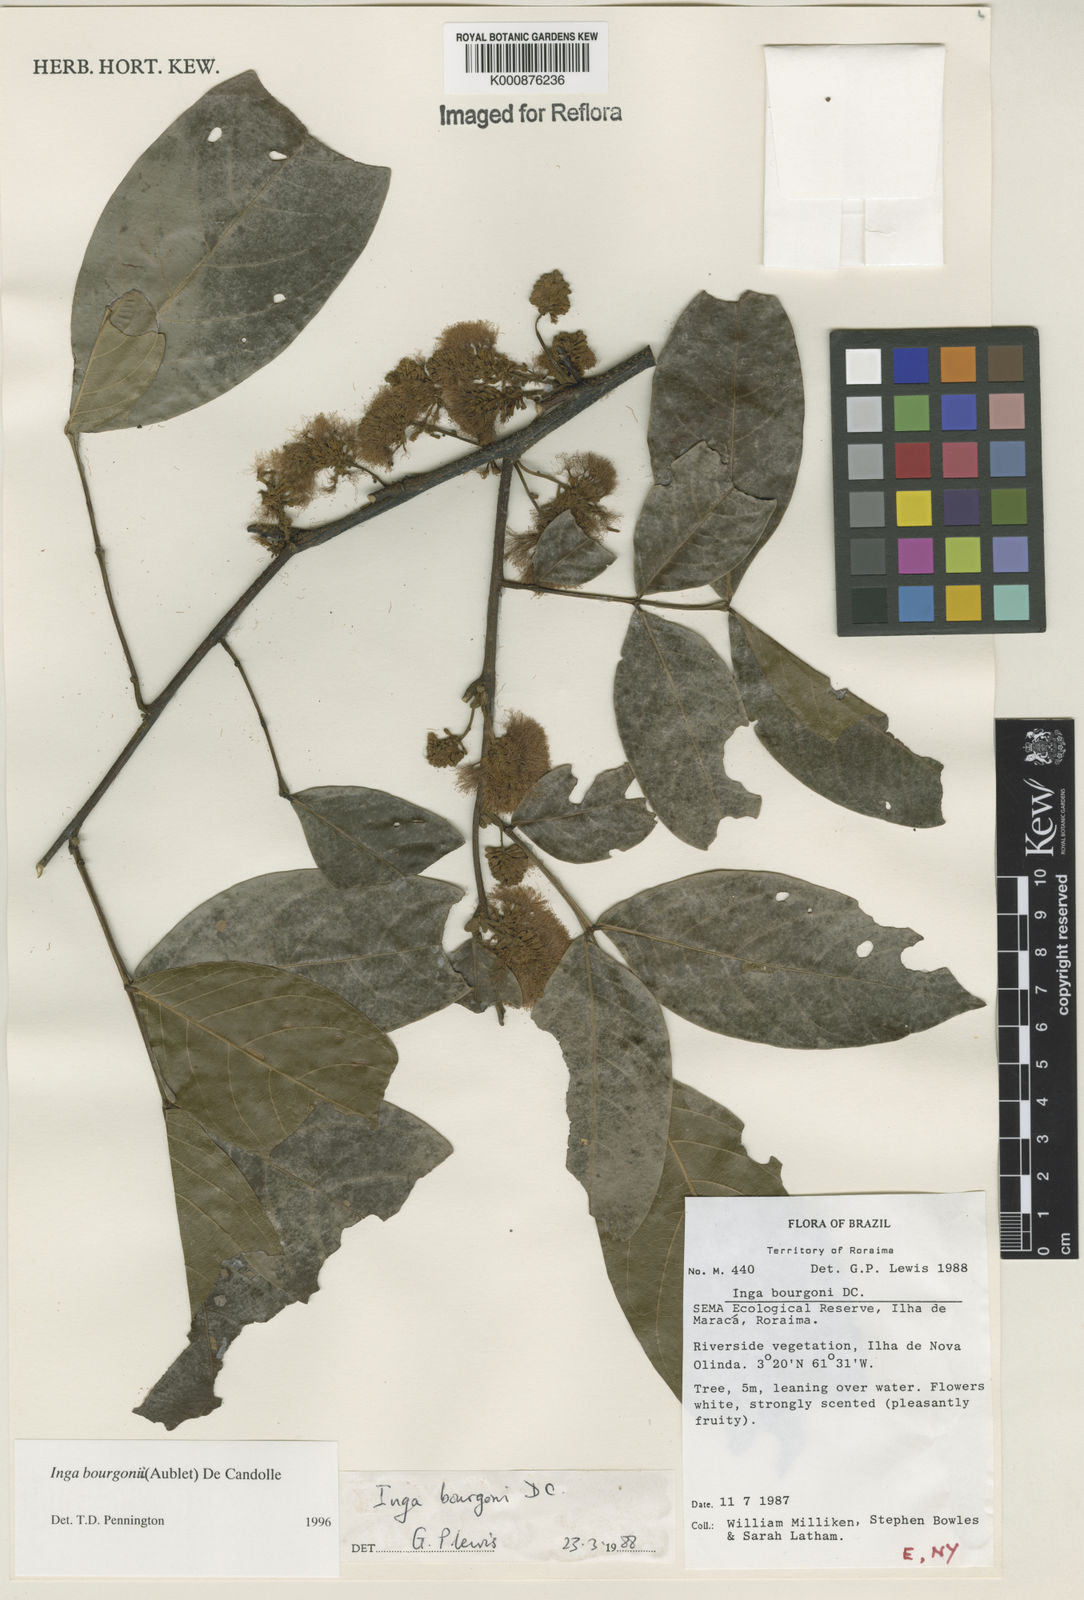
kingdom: Plantae
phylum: Tracheophyta
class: Magnoliopsida
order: Fabales
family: Fabaceae
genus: Inga
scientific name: Inga bourgoni
